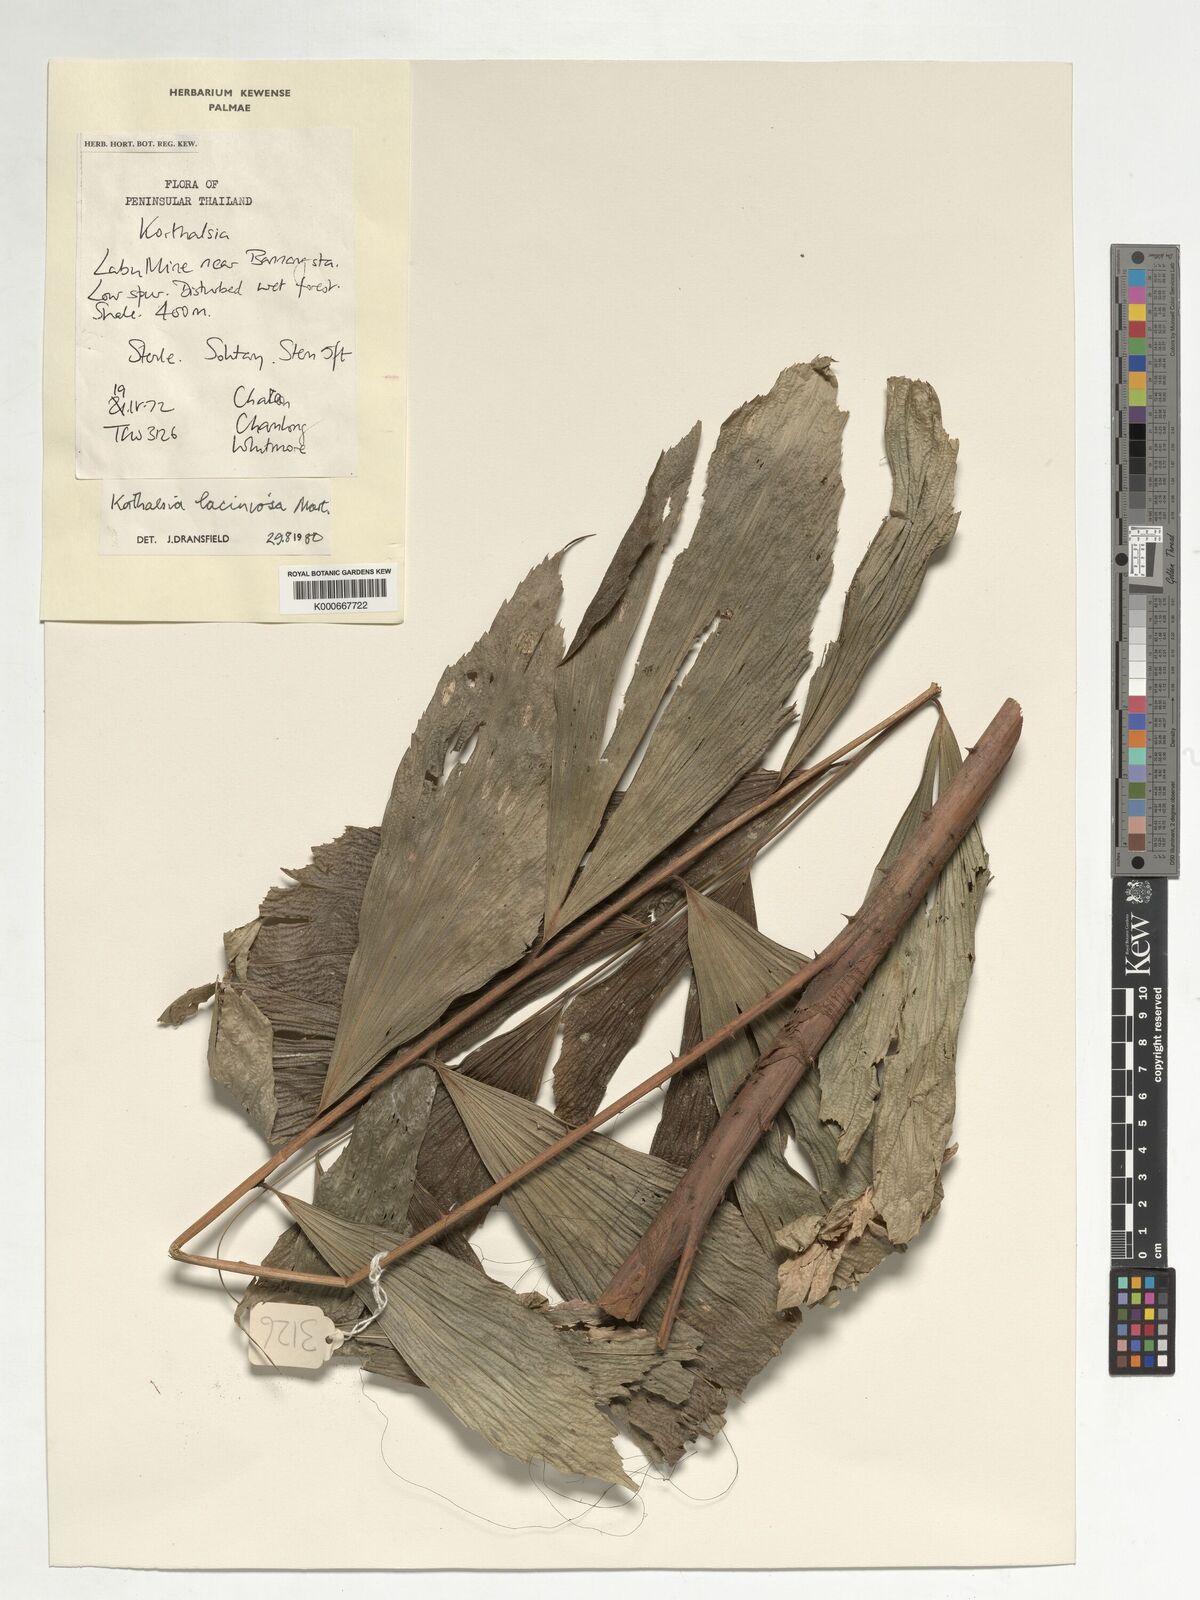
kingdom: Plantae
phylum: Tracheophyta
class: Liliopsida
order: Arecales
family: Arecaceae
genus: Korthalsia
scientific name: Korthalsia laciniosa
